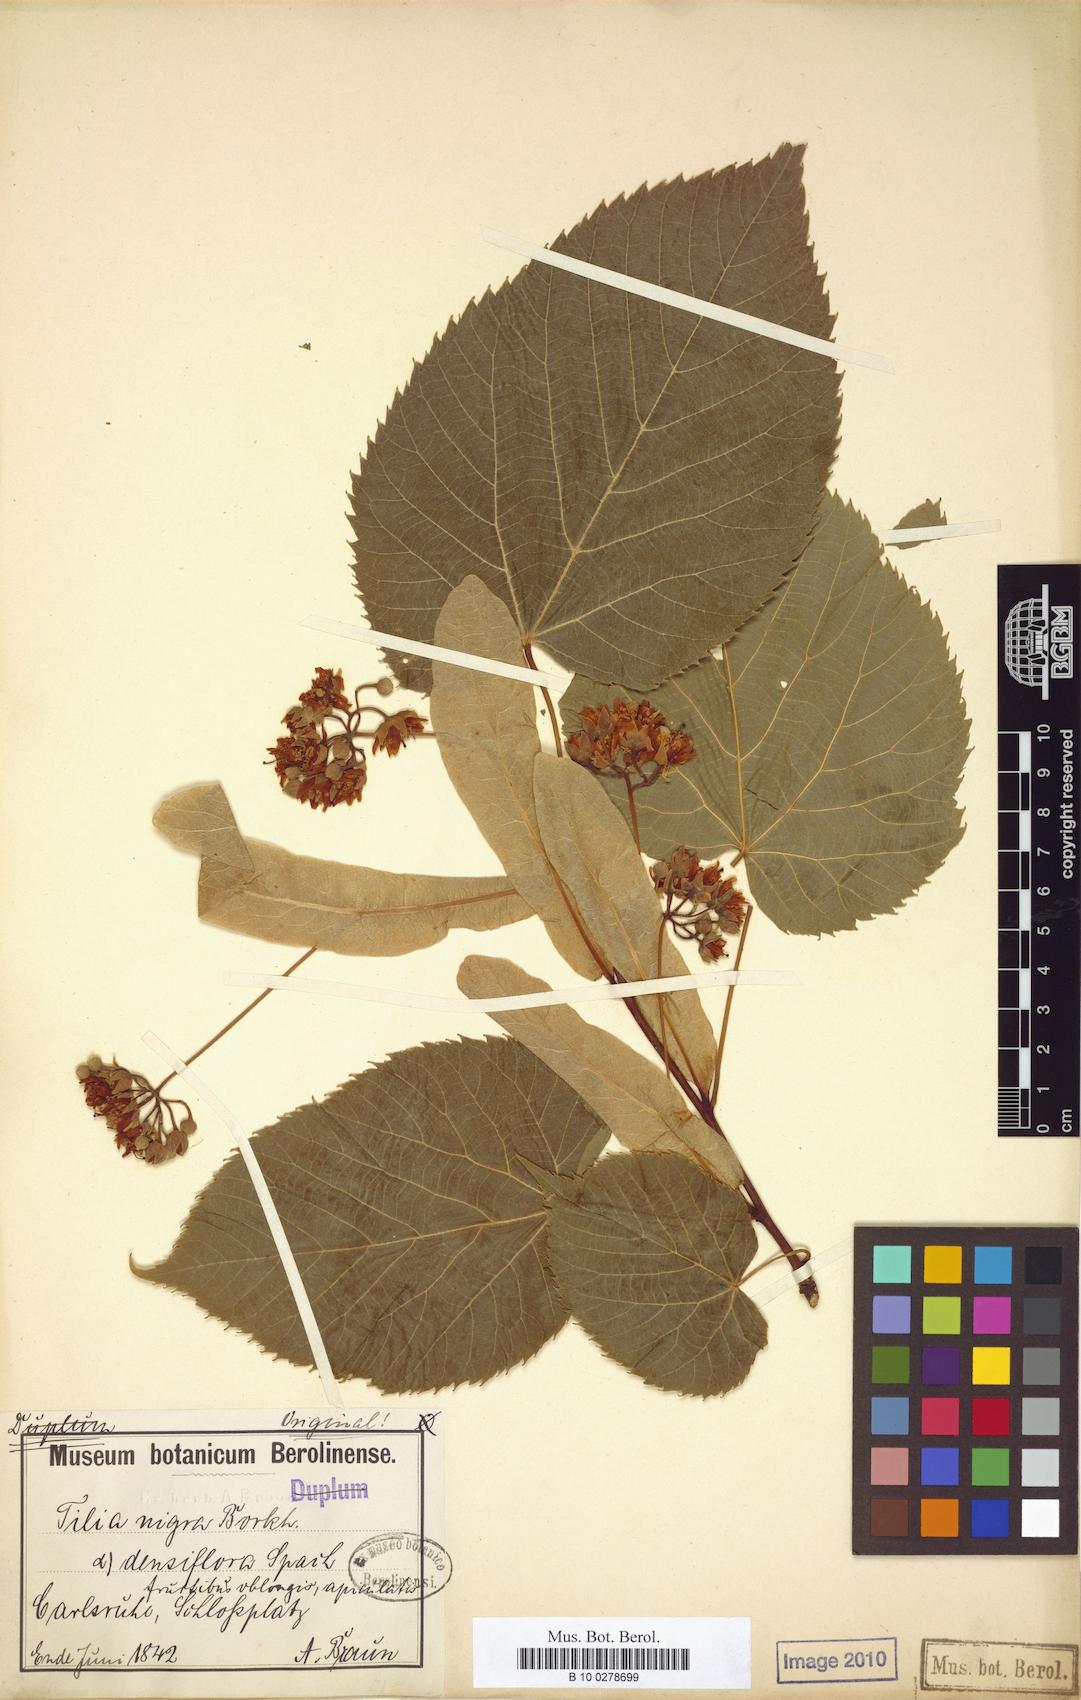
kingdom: Plantae
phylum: Tracheophyta
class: Magnoliopsida
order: Malvales
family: Malvaceae
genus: Tilia
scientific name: Tilia americana
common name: Basswood
